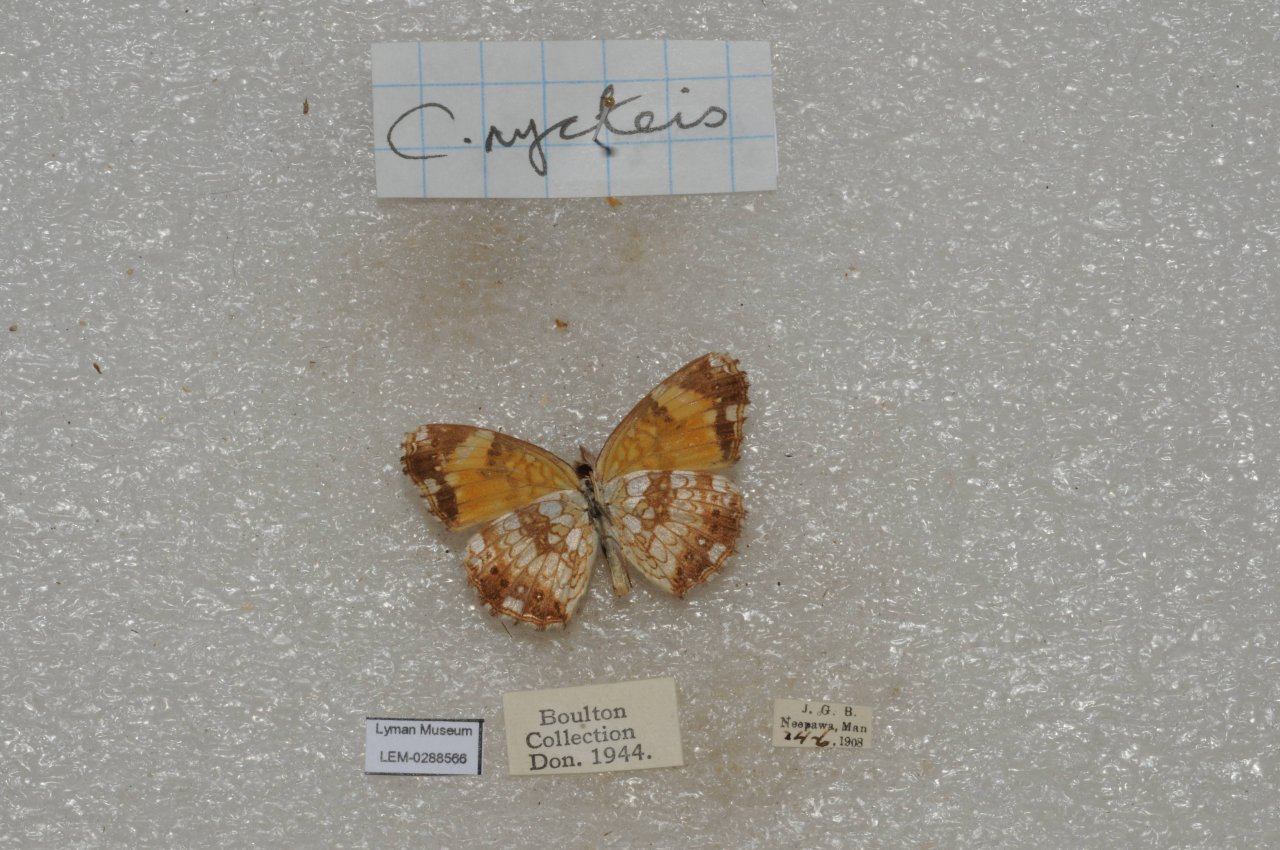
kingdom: Animalia
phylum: Arthropoda
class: Insecta
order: Lepidoptera
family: Nymphalidae
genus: Chlosyne
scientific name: Chlosyne nycteis
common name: Silvery Checkerspot
